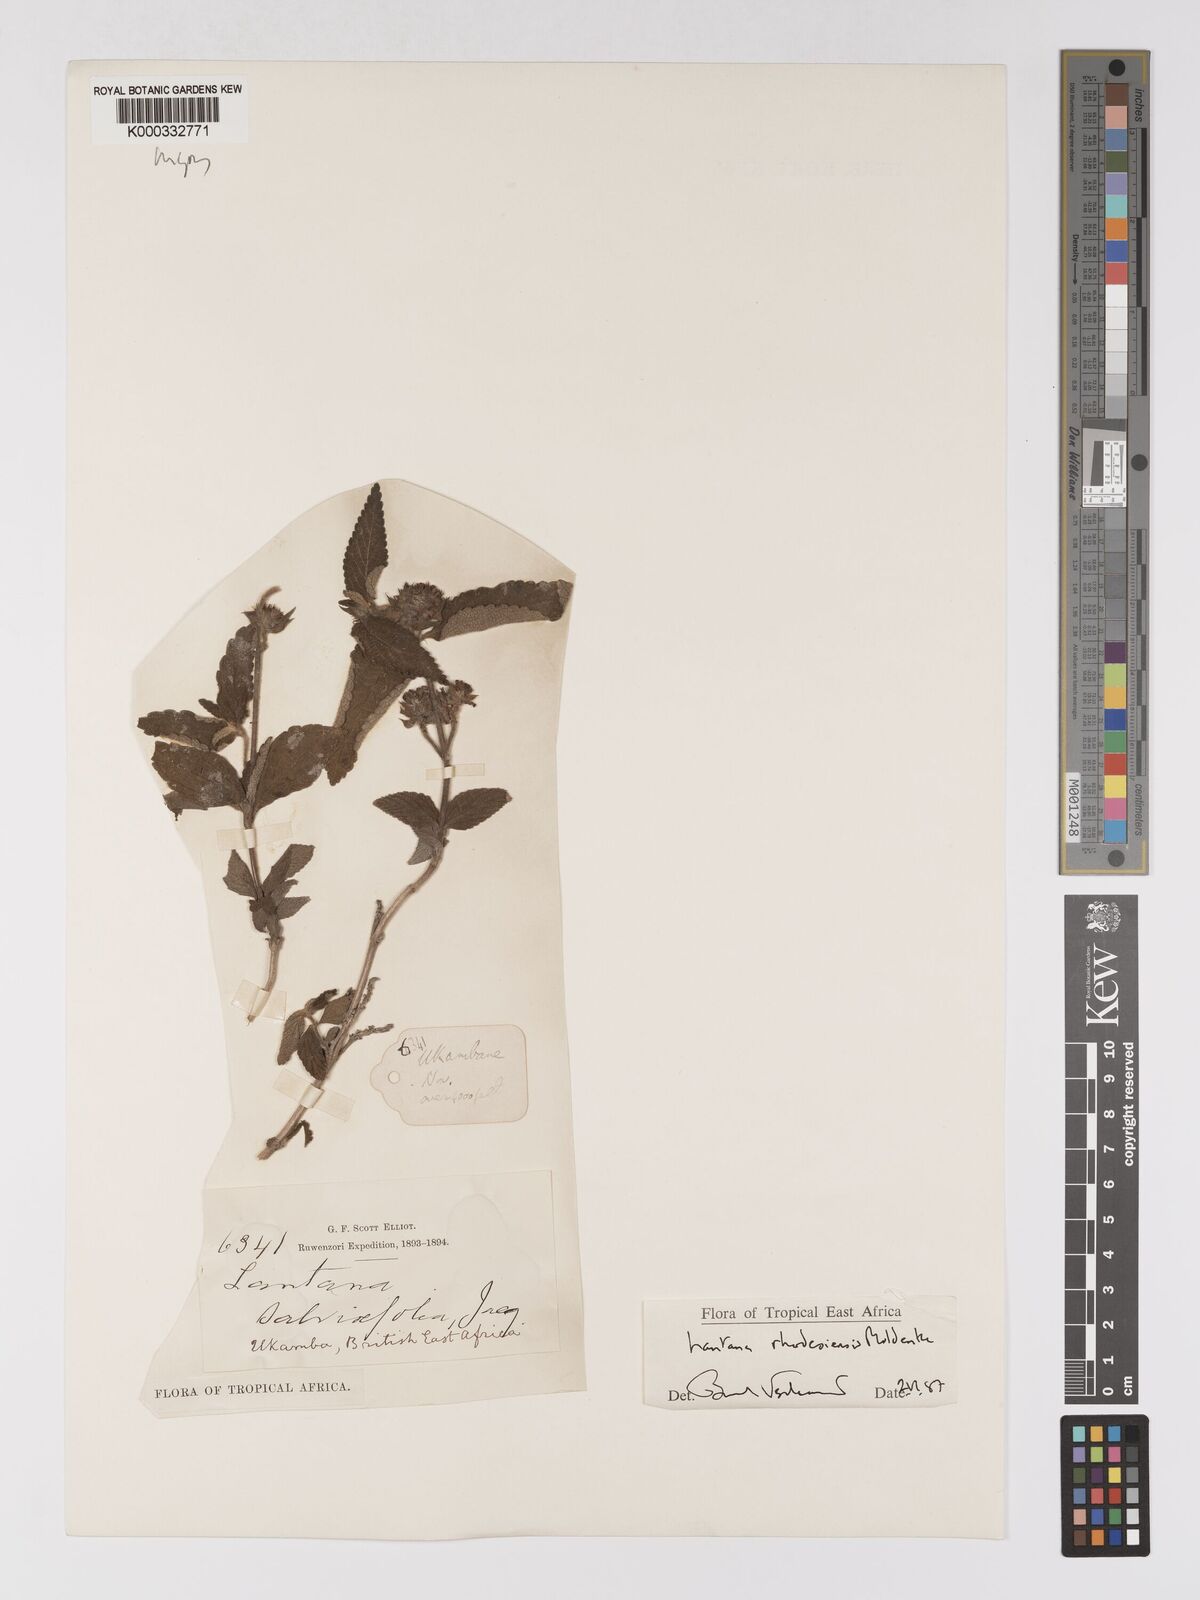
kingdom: Plantae
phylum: Tracheophyta
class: Magnoliopsida
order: Lamiales
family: Verbenaceae
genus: Lantana
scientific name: Lantana ukambensis
